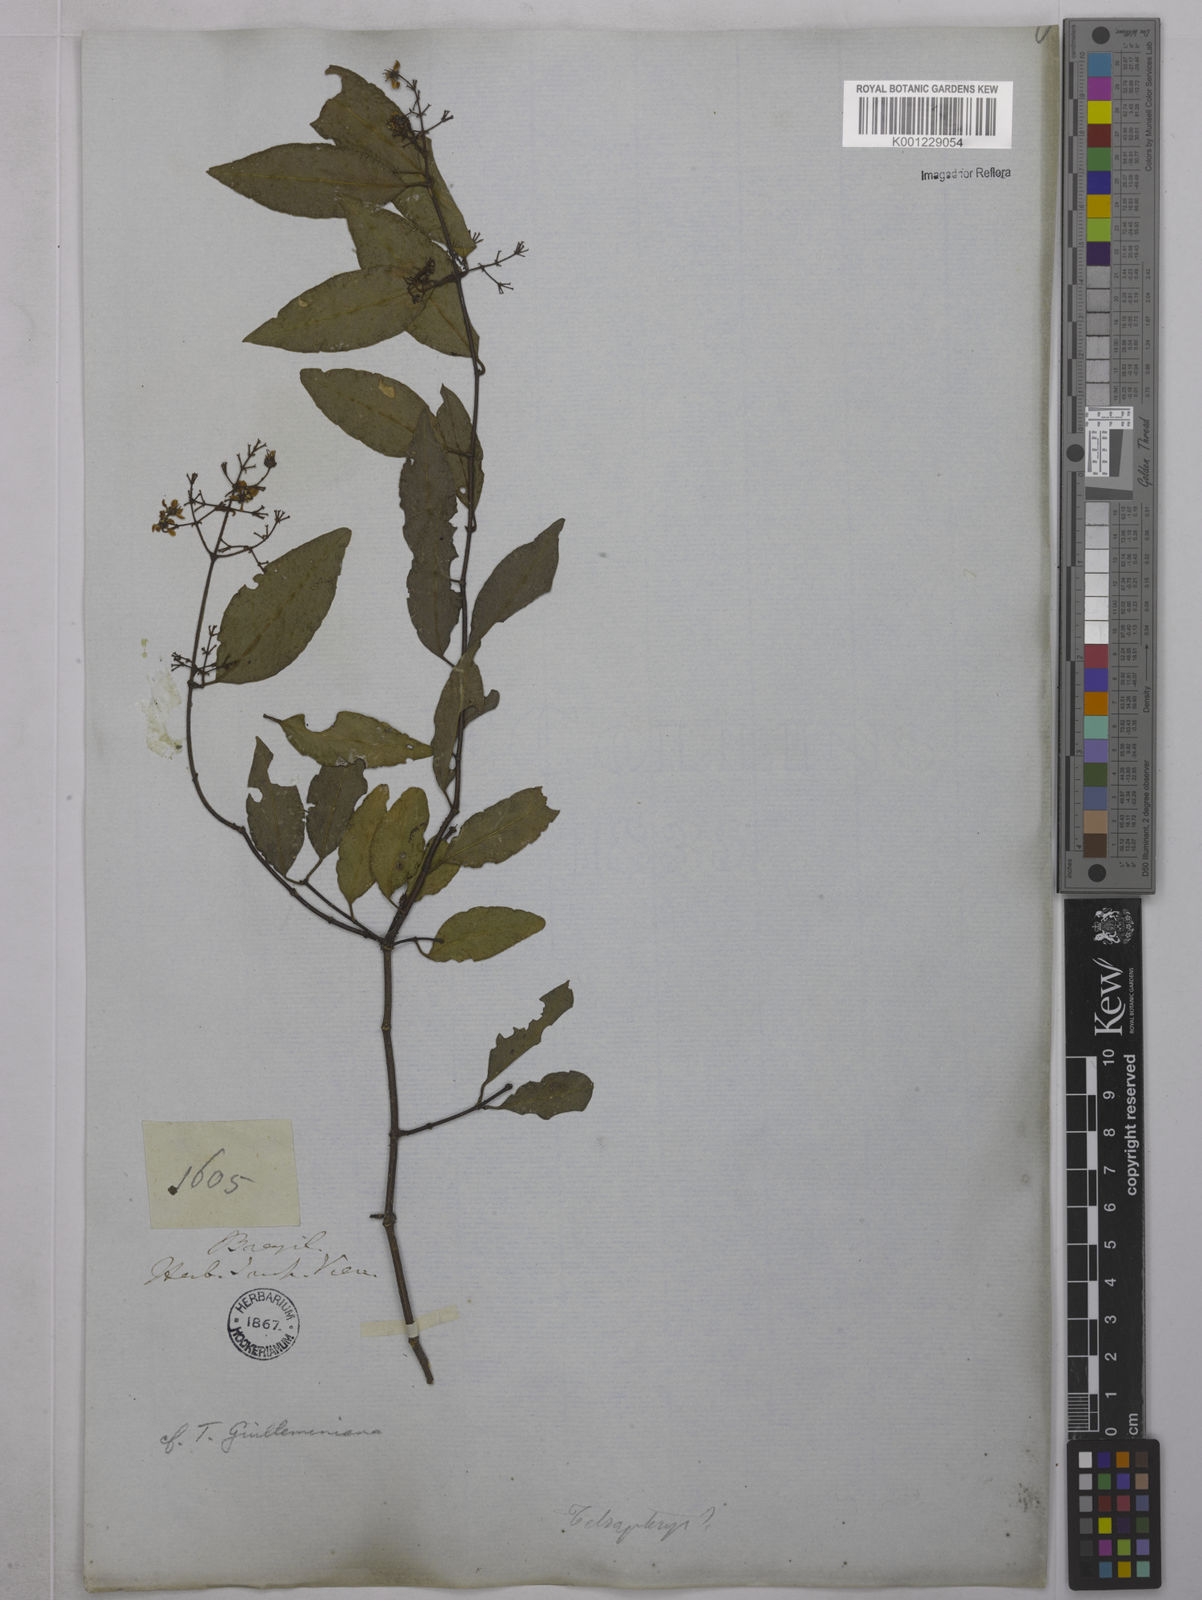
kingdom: Plantae
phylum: Tracheophyta
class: Magnoliopsida
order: Malpighiales
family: Malpighiaceae
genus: Niedenzuella
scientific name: Niedenzuella acutifolia
